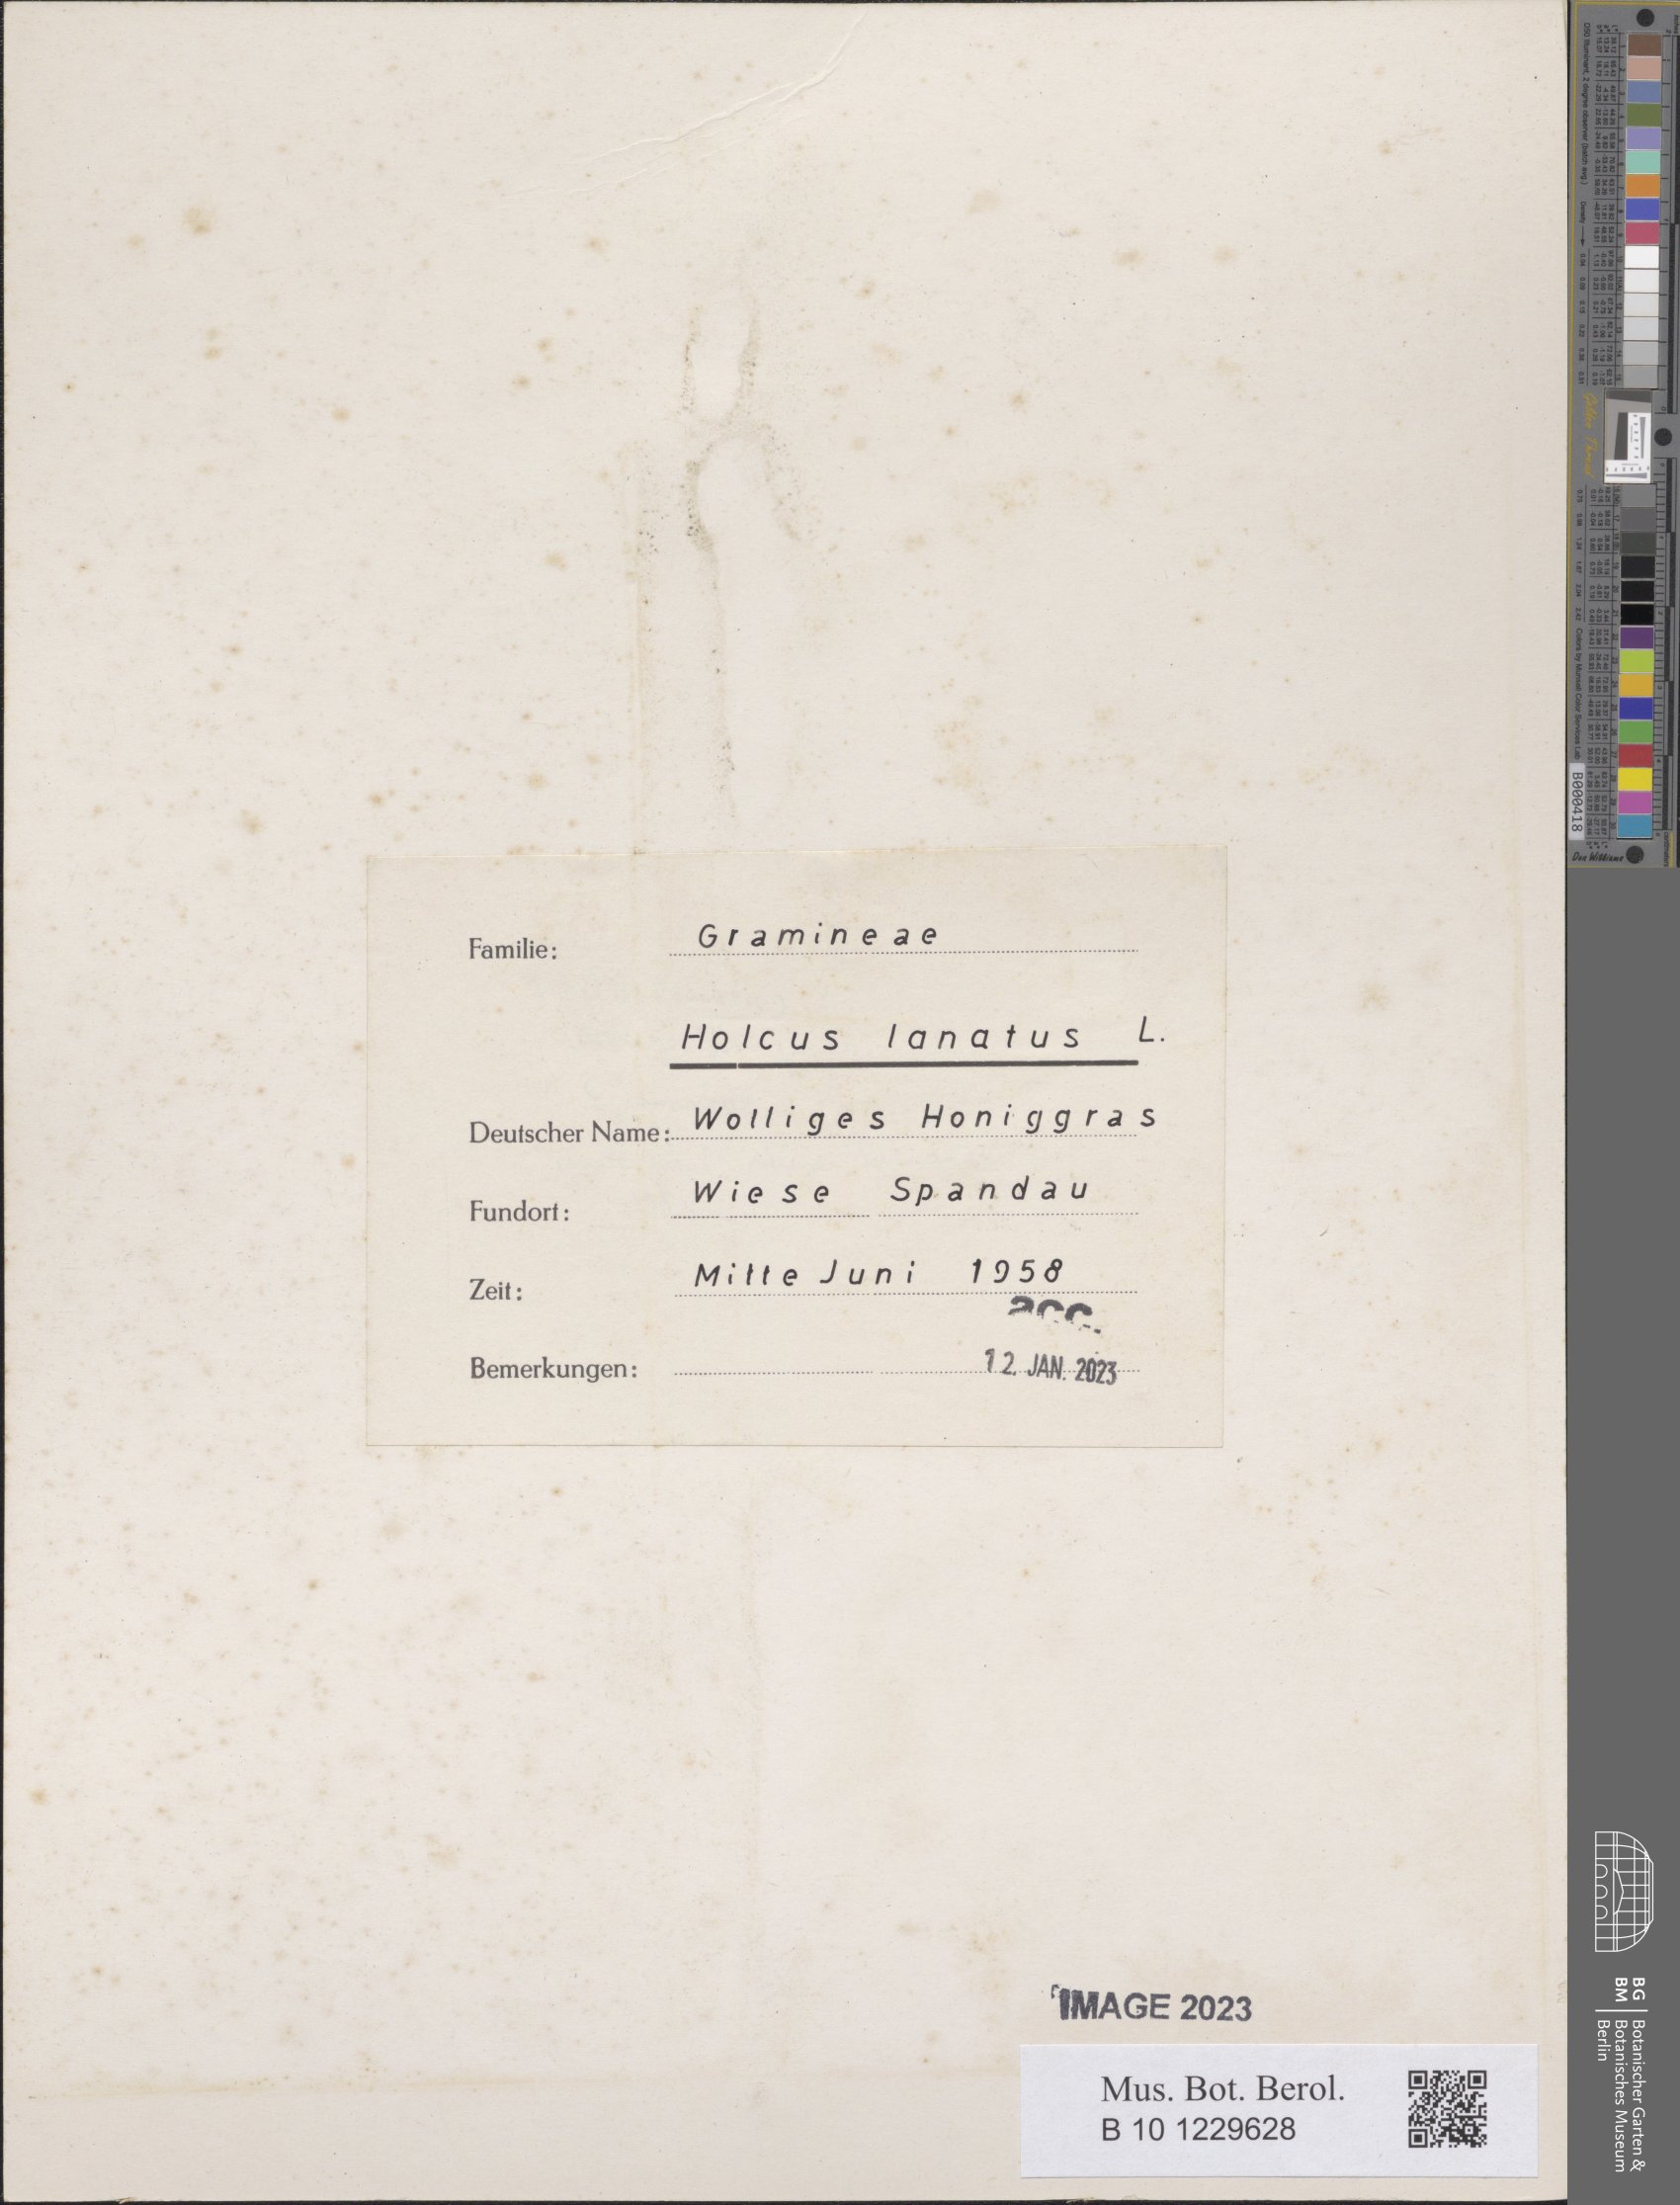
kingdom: Plantae
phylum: Tracheophyta
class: Liliopsida
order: Poales
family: Poaceae
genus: Holcus
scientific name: Holcus lanatus
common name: Yorkshire-fog
